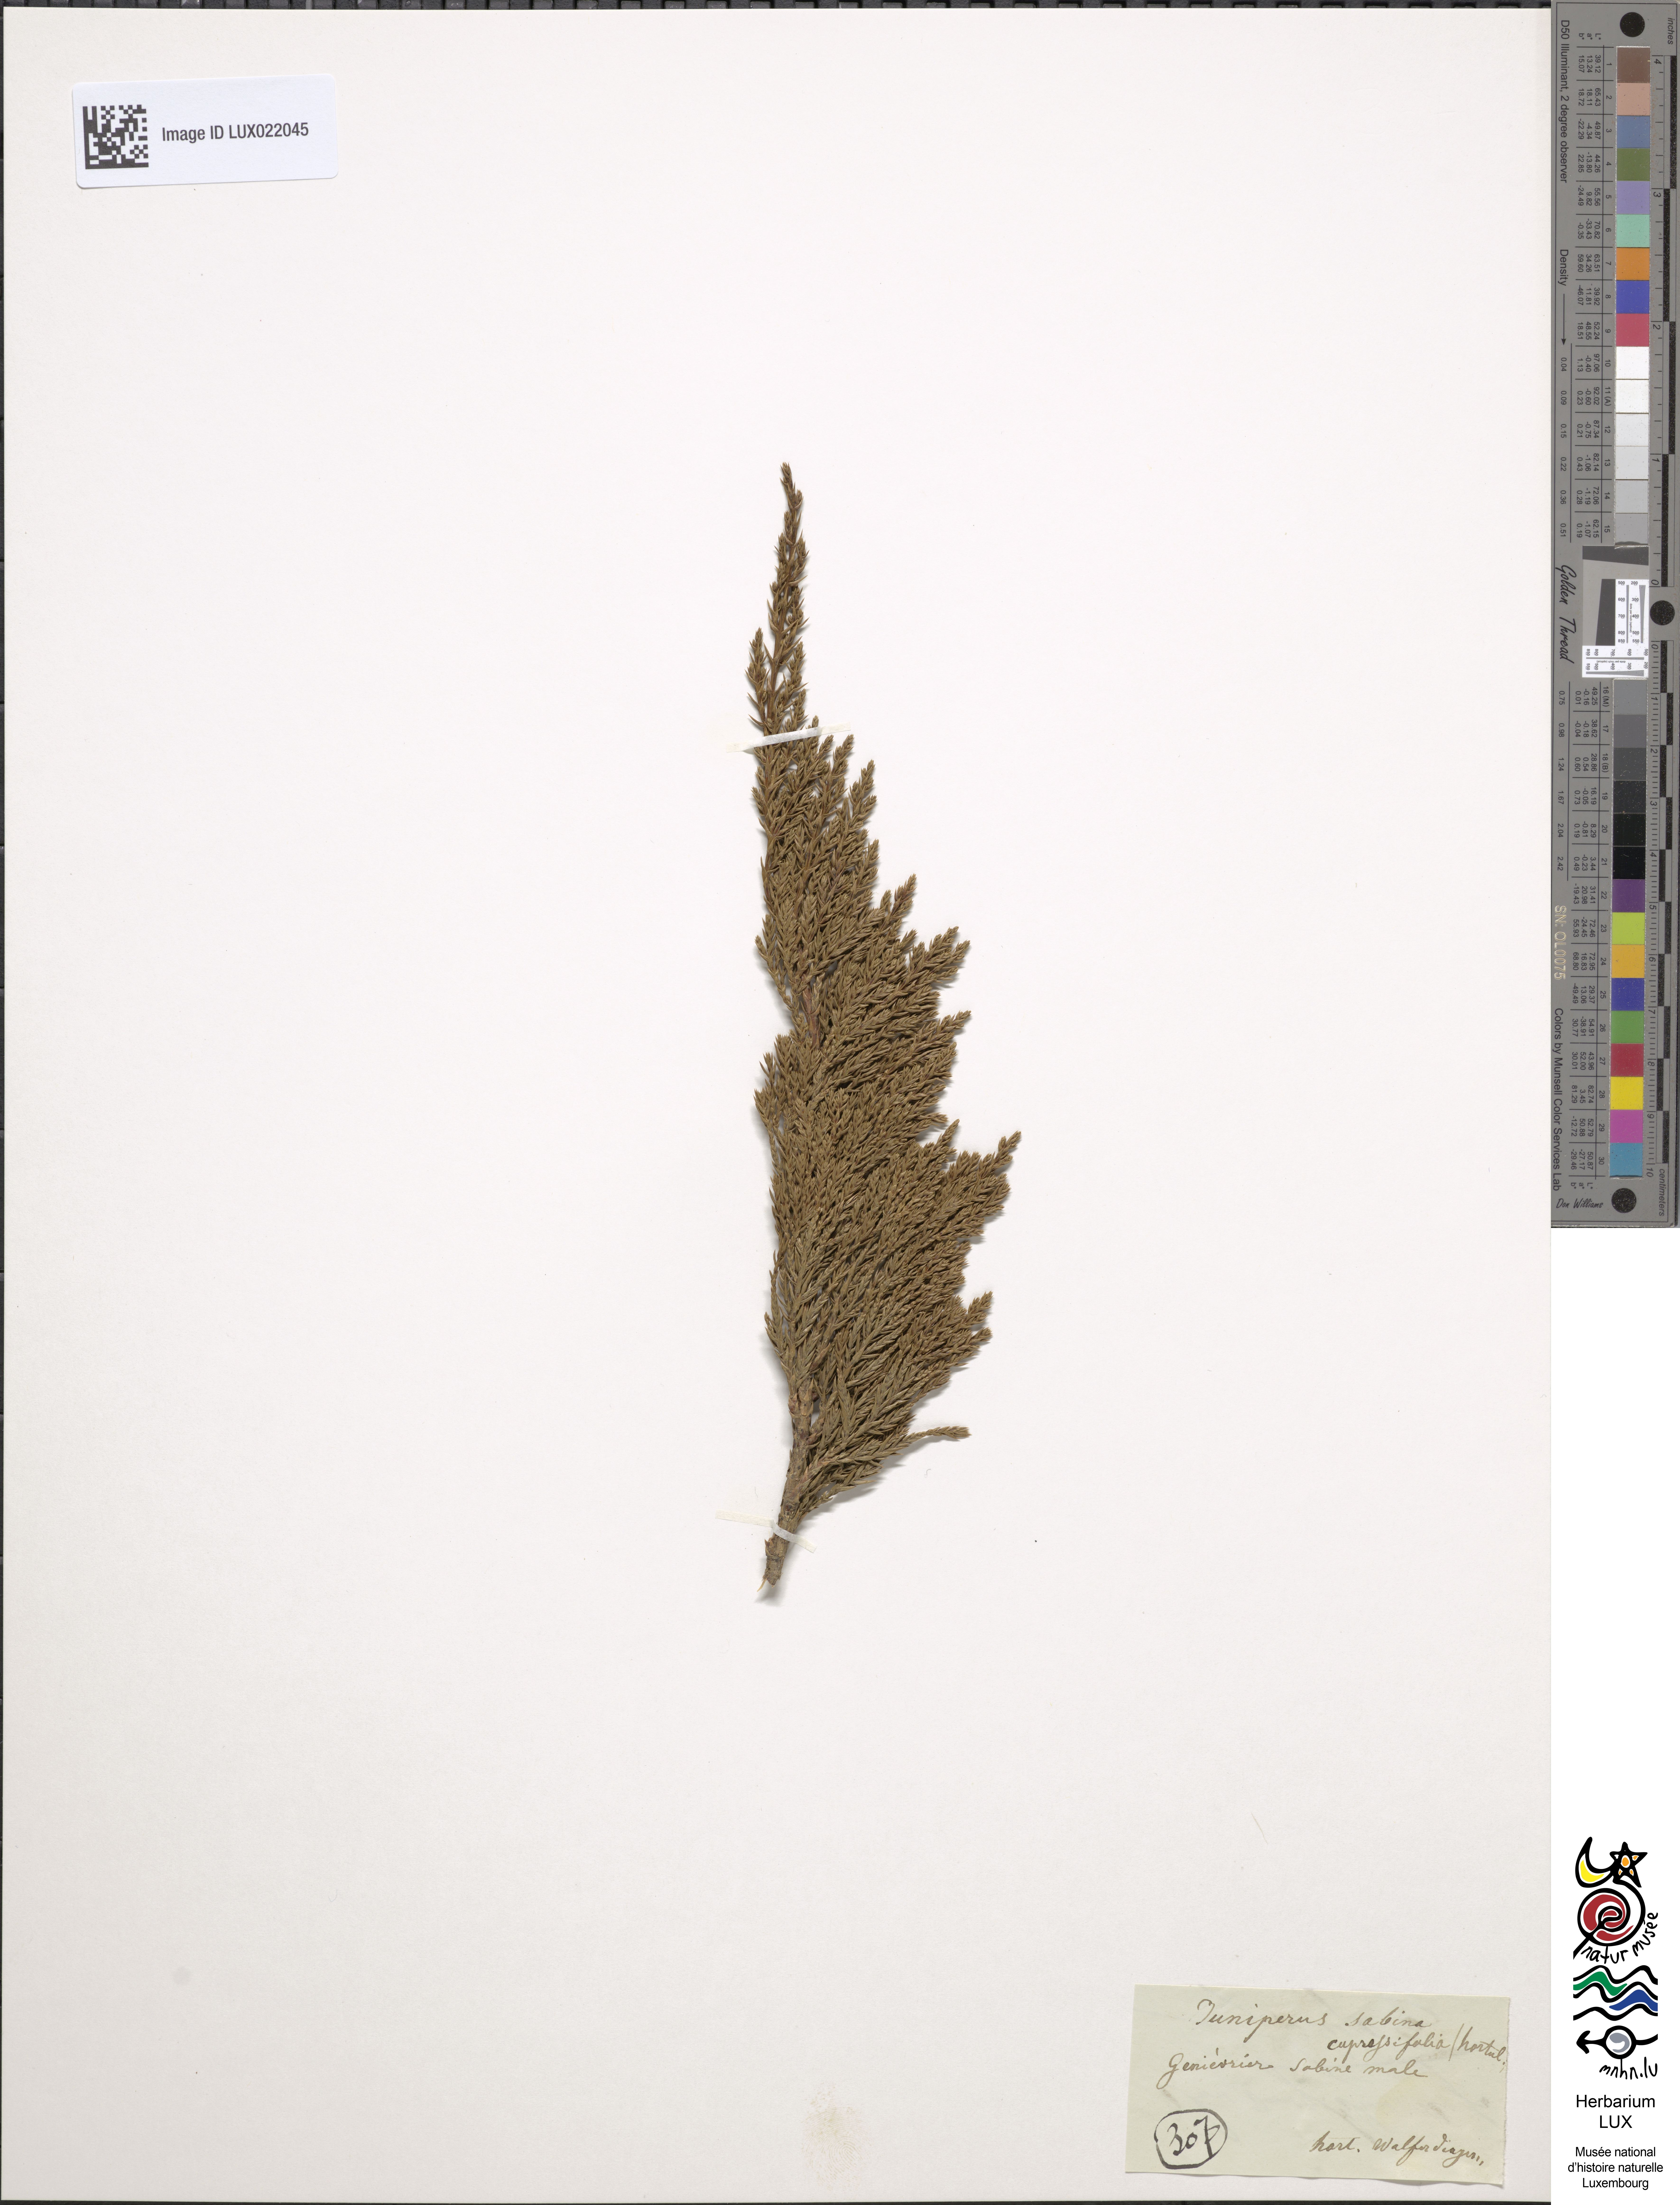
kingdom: Plantae
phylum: Tracheophyta
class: Pinopsida
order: Pinales
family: Cupressaceae
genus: Juniperus
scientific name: Juniperus sabina
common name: Savin
